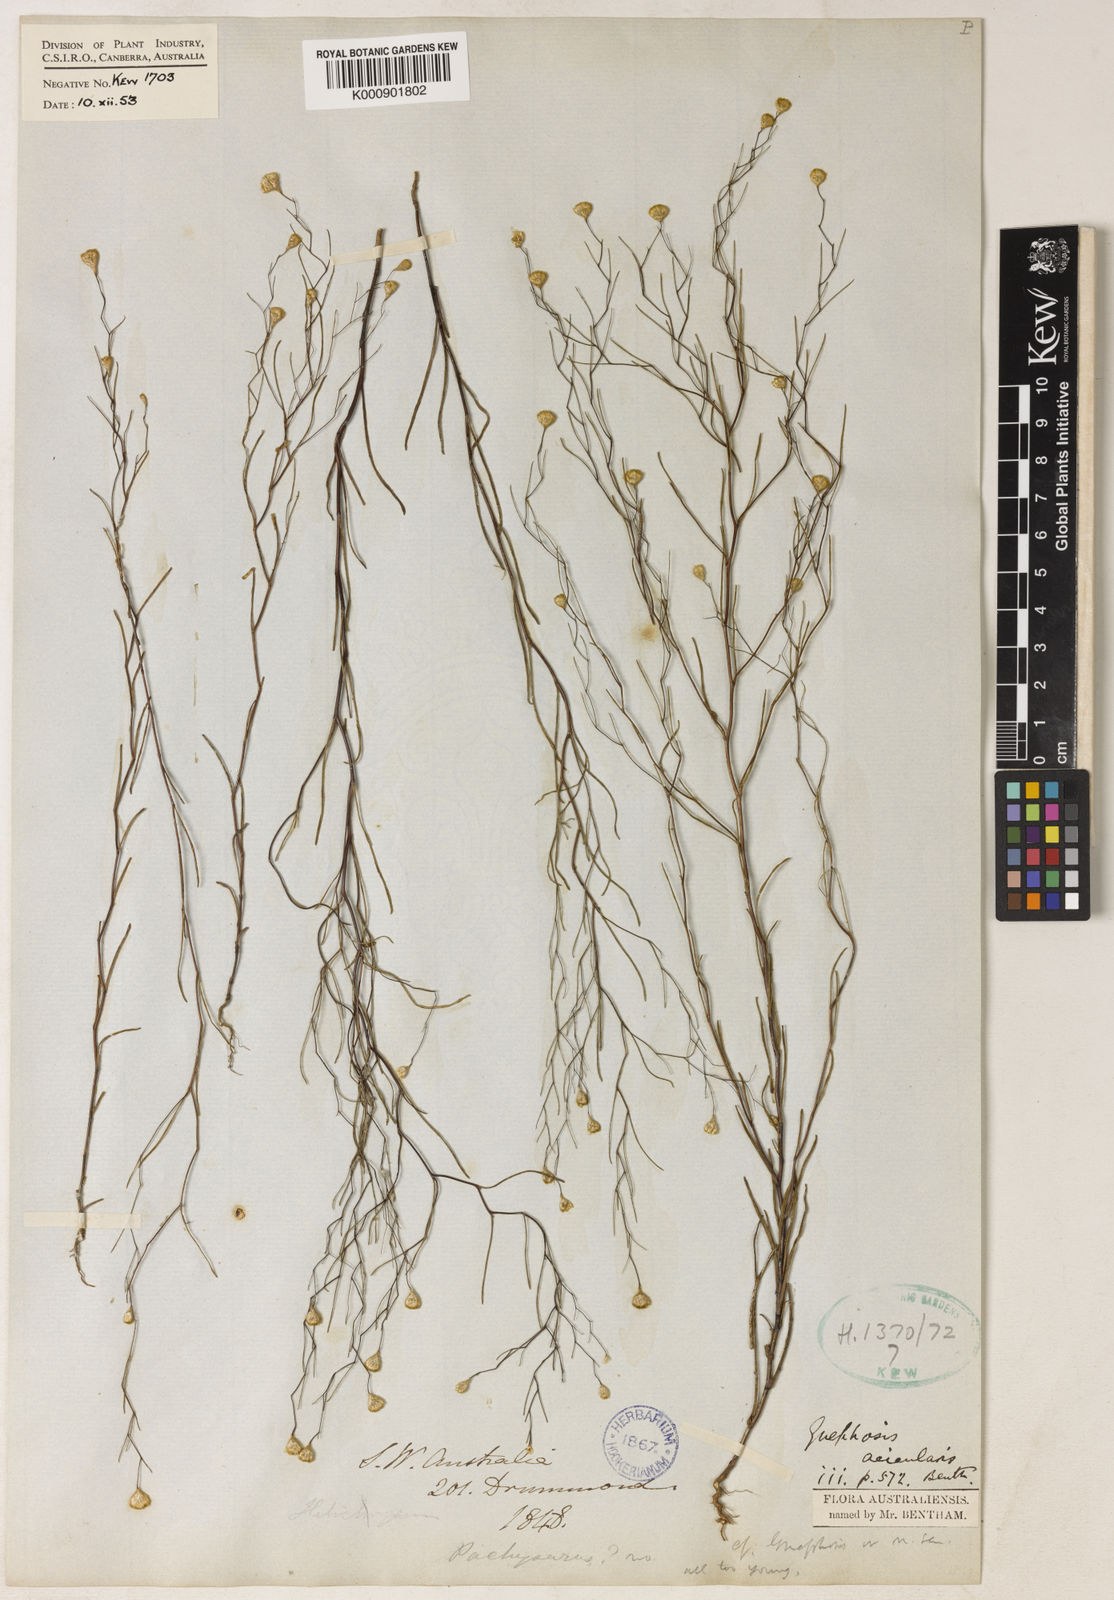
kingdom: Plantae
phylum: Tracheophyta
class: Magnoliopsida
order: Asterales
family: Asteraceae
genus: Gnephosis
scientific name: Gnephosis acicularis
